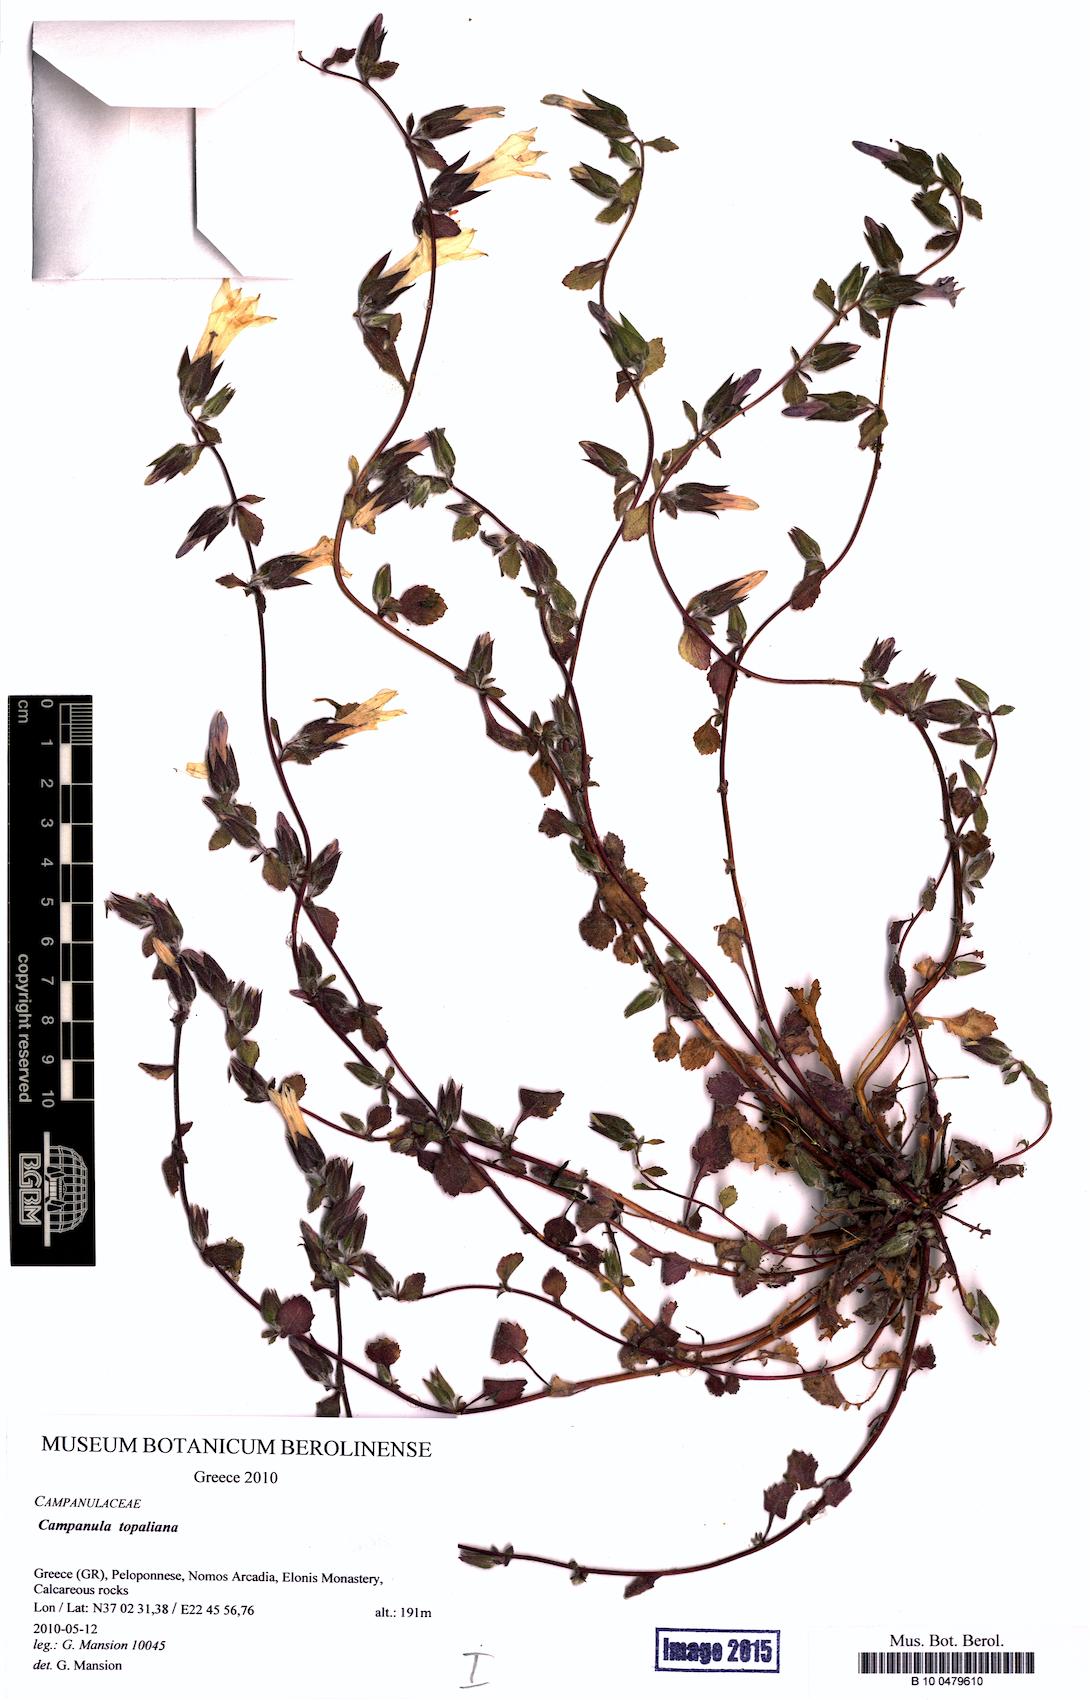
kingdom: Plantae
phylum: Tracheophyta
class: Magnoliopsida
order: Asterales
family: Campanulaceae
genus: Campanula
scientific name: Campanula topaliana
